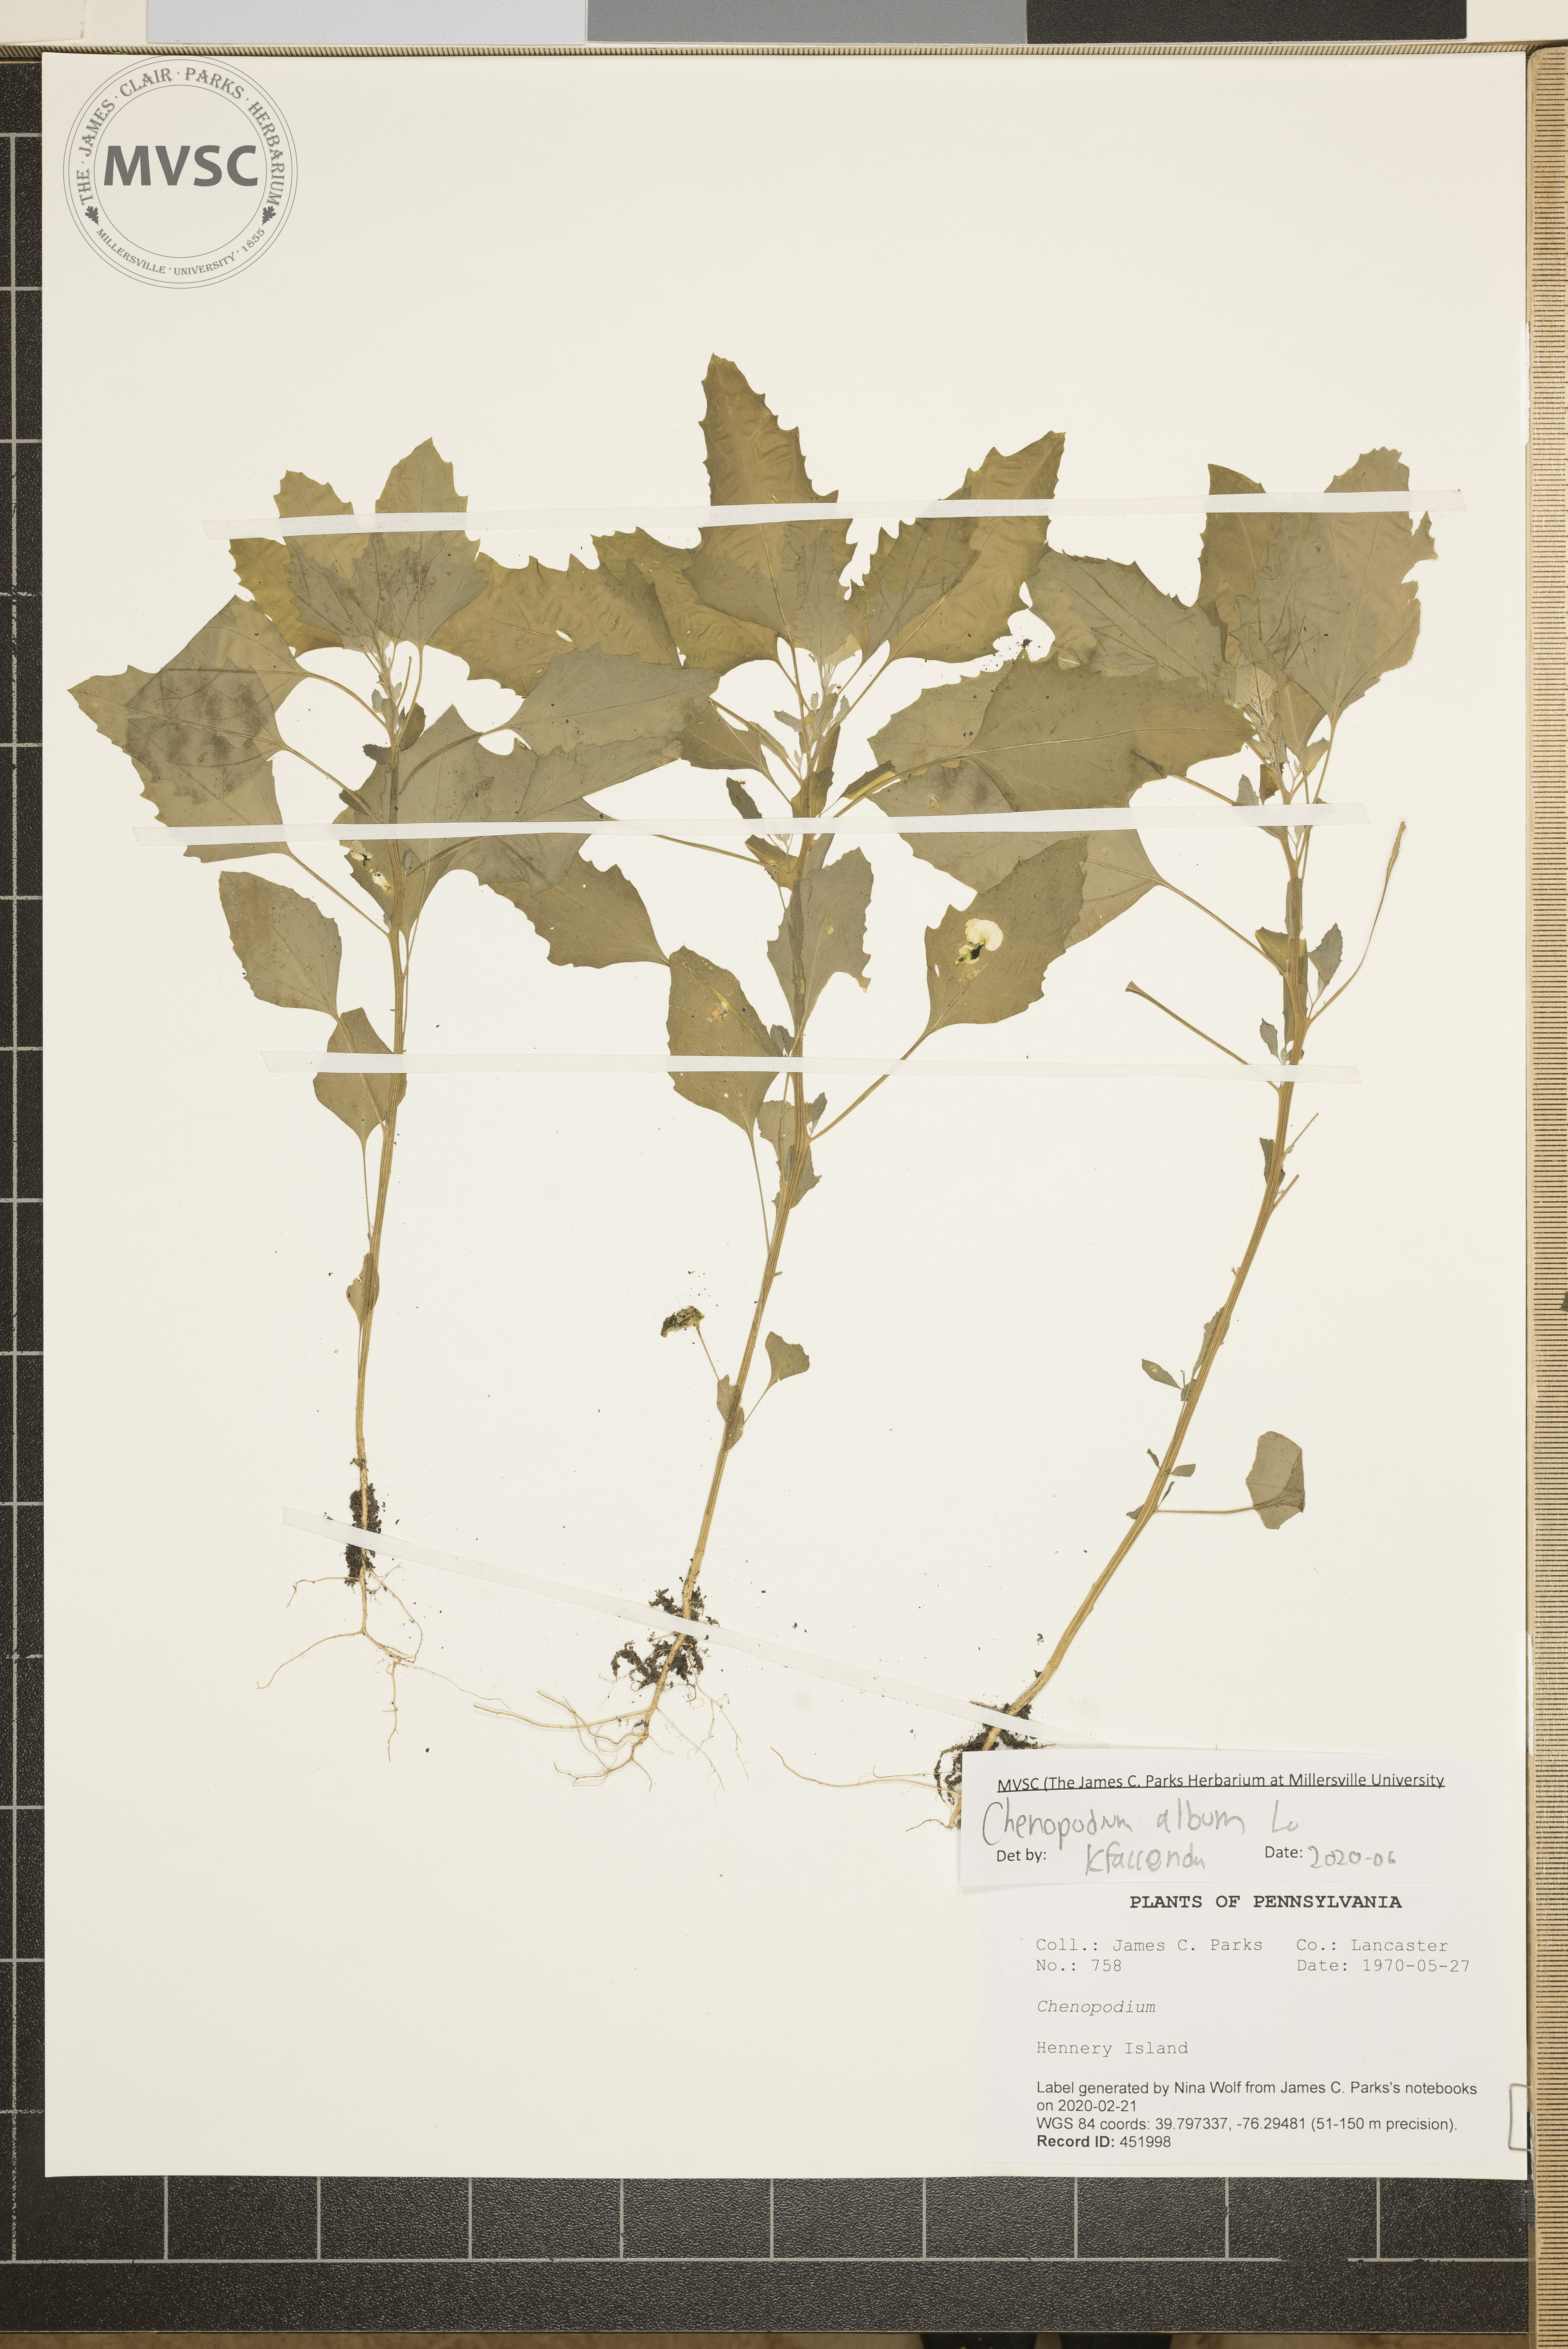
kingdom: Plantae
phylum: Tracheophyta
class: Magnoliopsida
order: Caryophyllales
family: Amaranthaceae
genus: Chenopodium
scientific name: Chenopodium album
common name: Fat-hen
